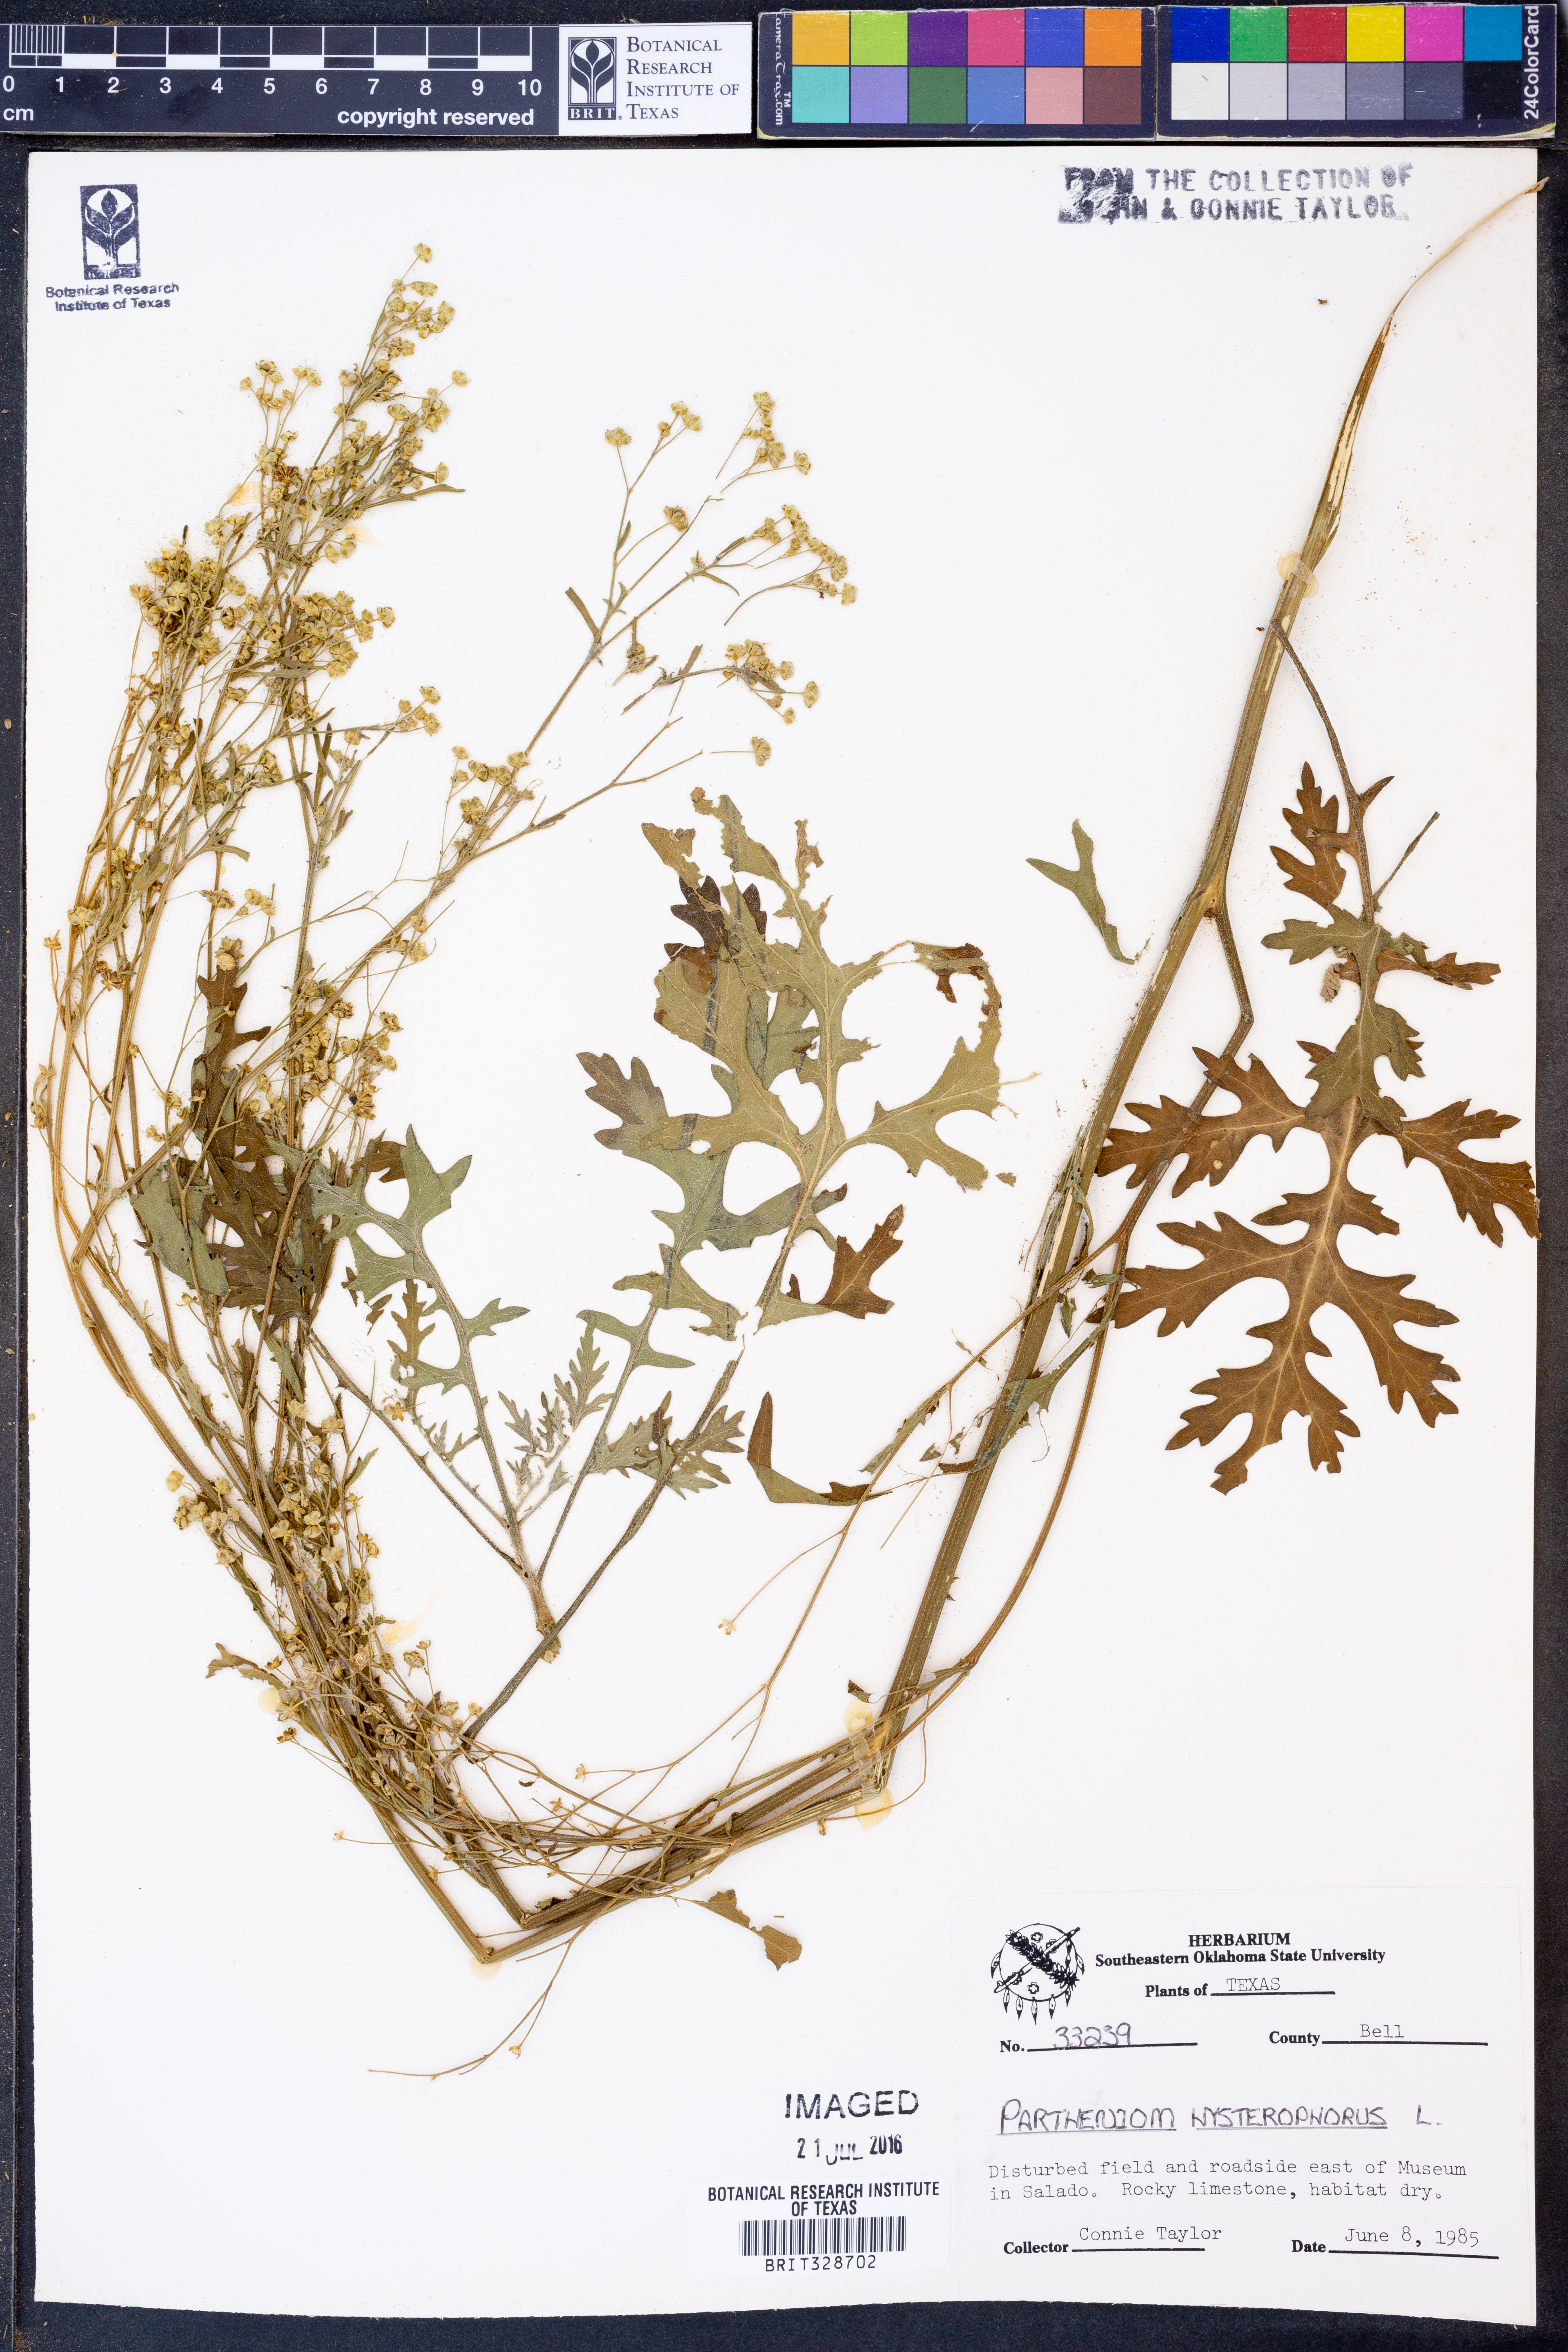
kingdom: Plantae
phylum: Tracheophyta
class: Magnoliopsida
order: Asterales
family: Asteraceae
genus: Parthenium
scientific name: Parthenium hysterophorus
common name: Santa maria feverfew
